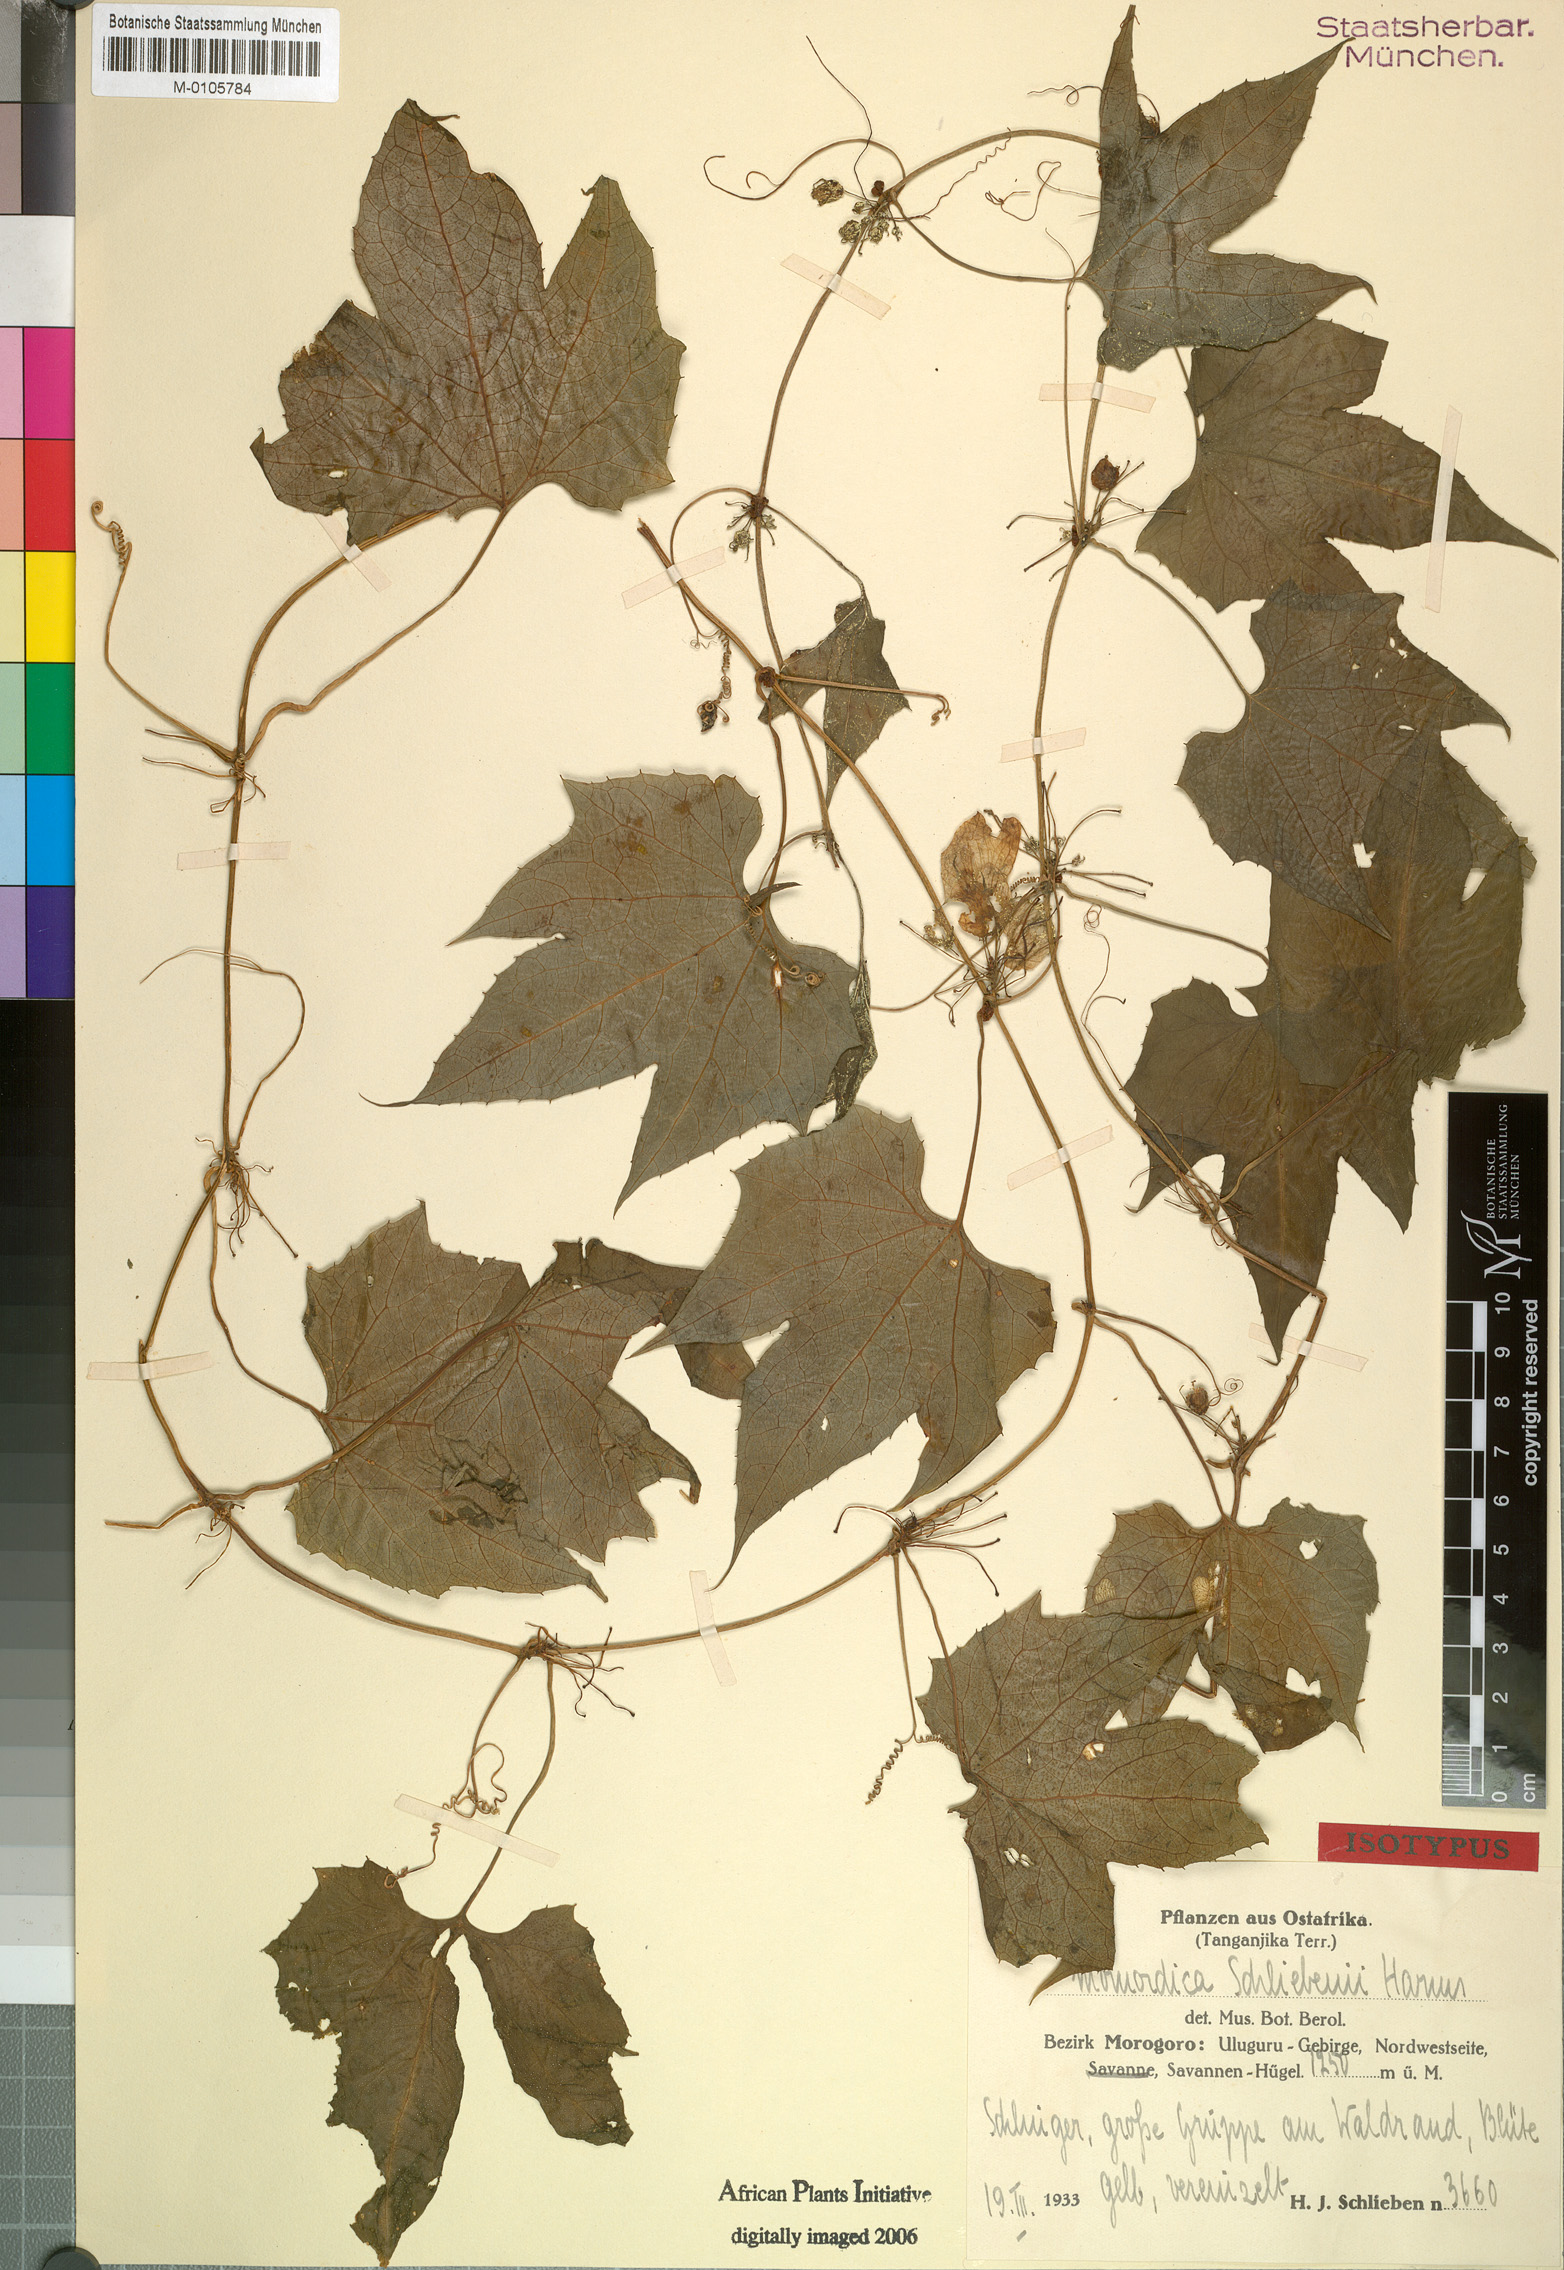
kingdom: Plantae
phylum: Tracheophyta
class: Magnoliopsida
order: Cucurbitales
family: Cucurbitaceae
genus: Diplocyclos
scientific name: Diplocyclos schliebenii
